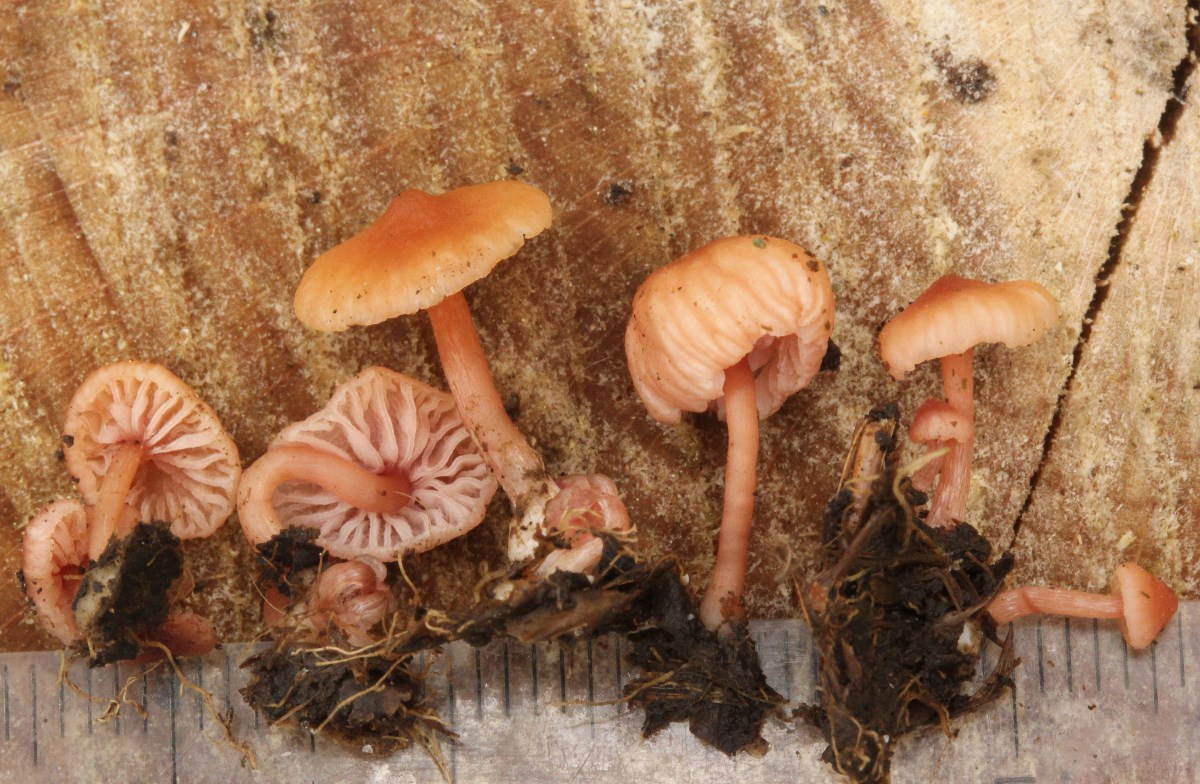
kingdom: Fungi
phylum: Basidiomycota
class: Agaricomycetes
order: Agaricales
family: Hydnangiaceae
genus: Laccaria
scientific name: Laccaria tortilis
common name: krybende ametysthat
